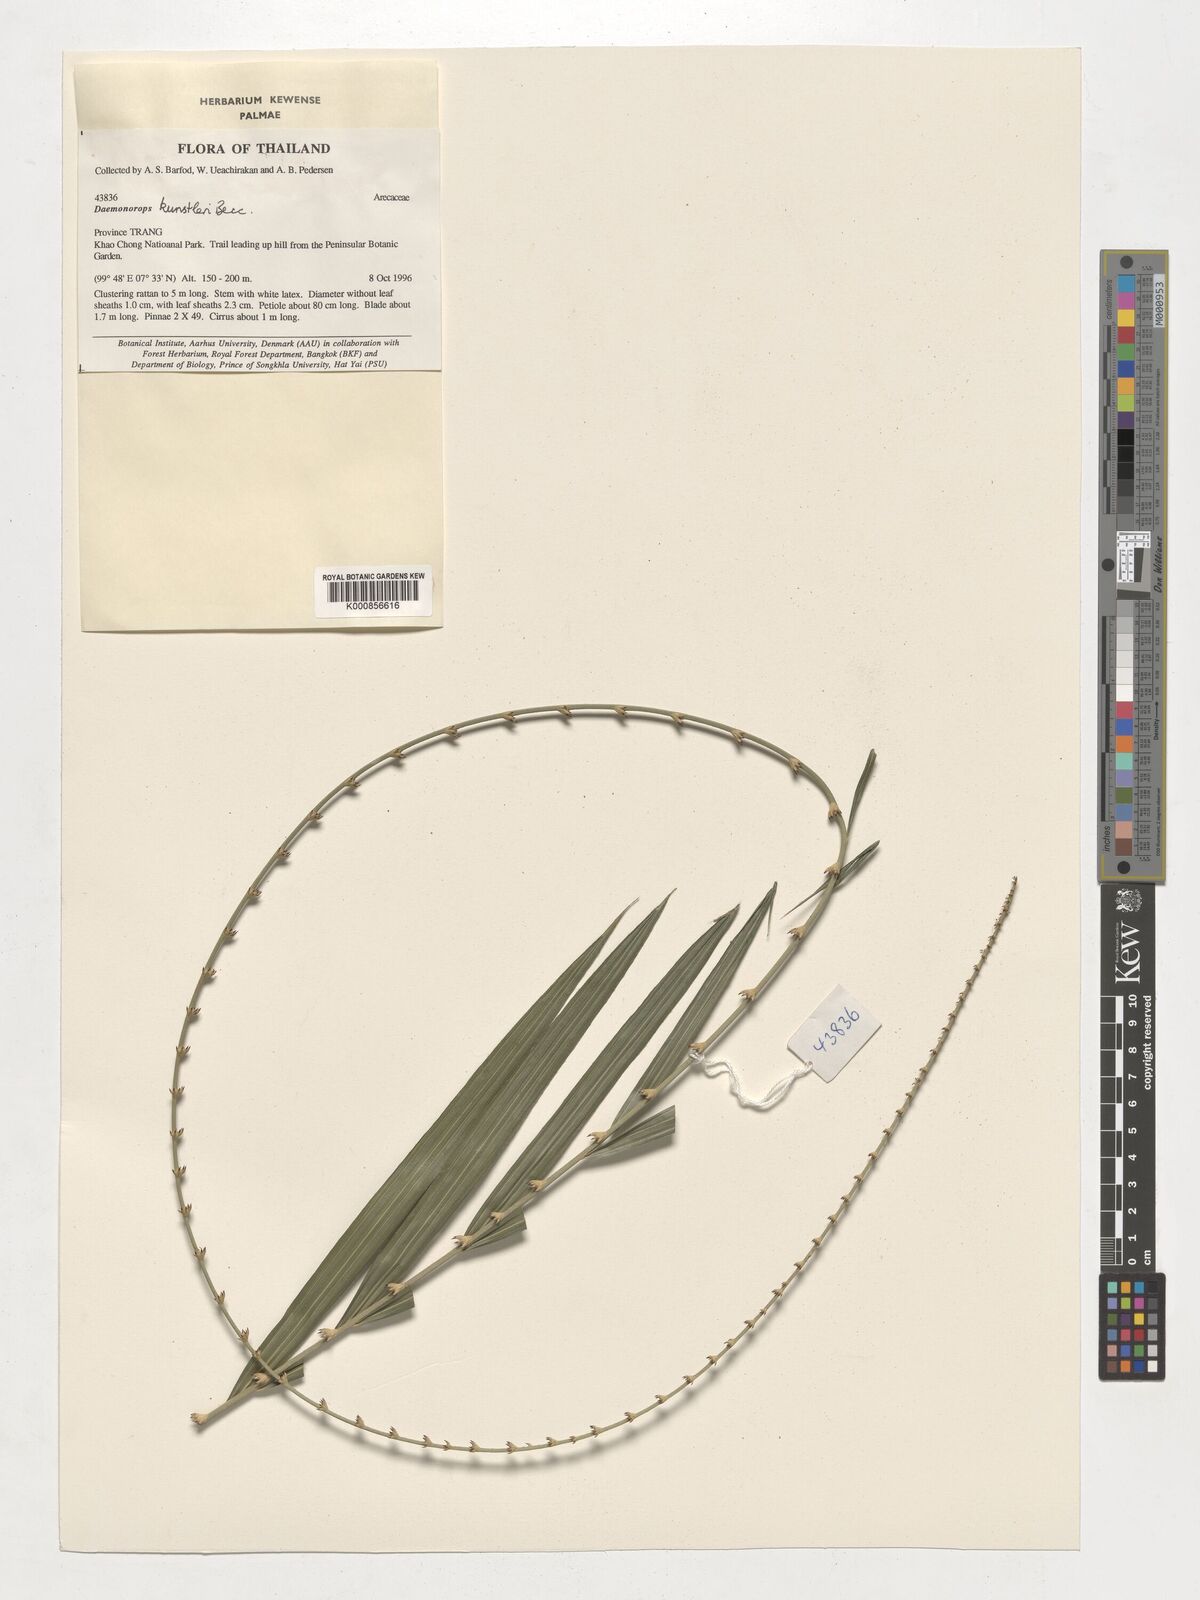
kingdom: Plantae
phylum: Tracheophyta
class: Liliopsida
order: Arecales
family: Arecaceae
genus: Calamus
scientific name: Calamus kunstleri
